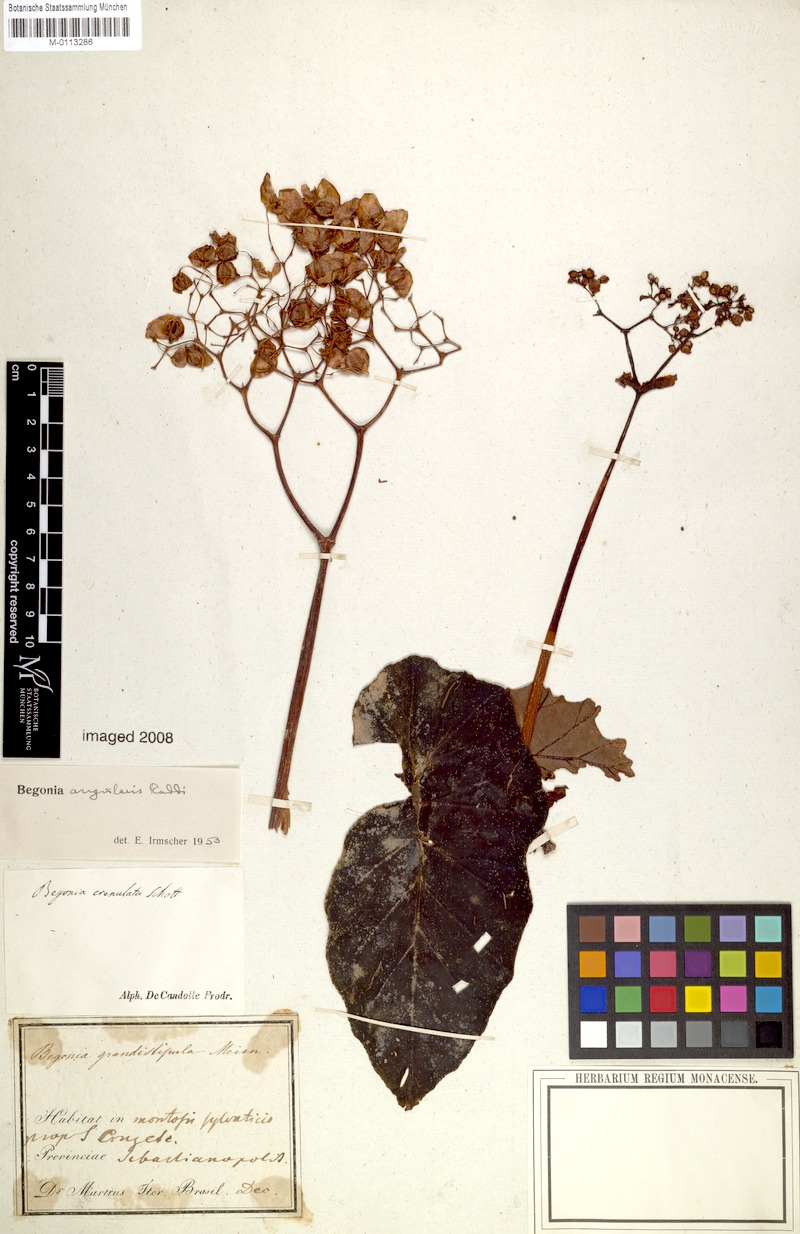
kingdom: Plantae
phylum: Tracheophyta
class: Magnoliopsida
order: Cucurbitales
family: Begoniaceae
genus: Begonia
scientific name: Begonia angularis
